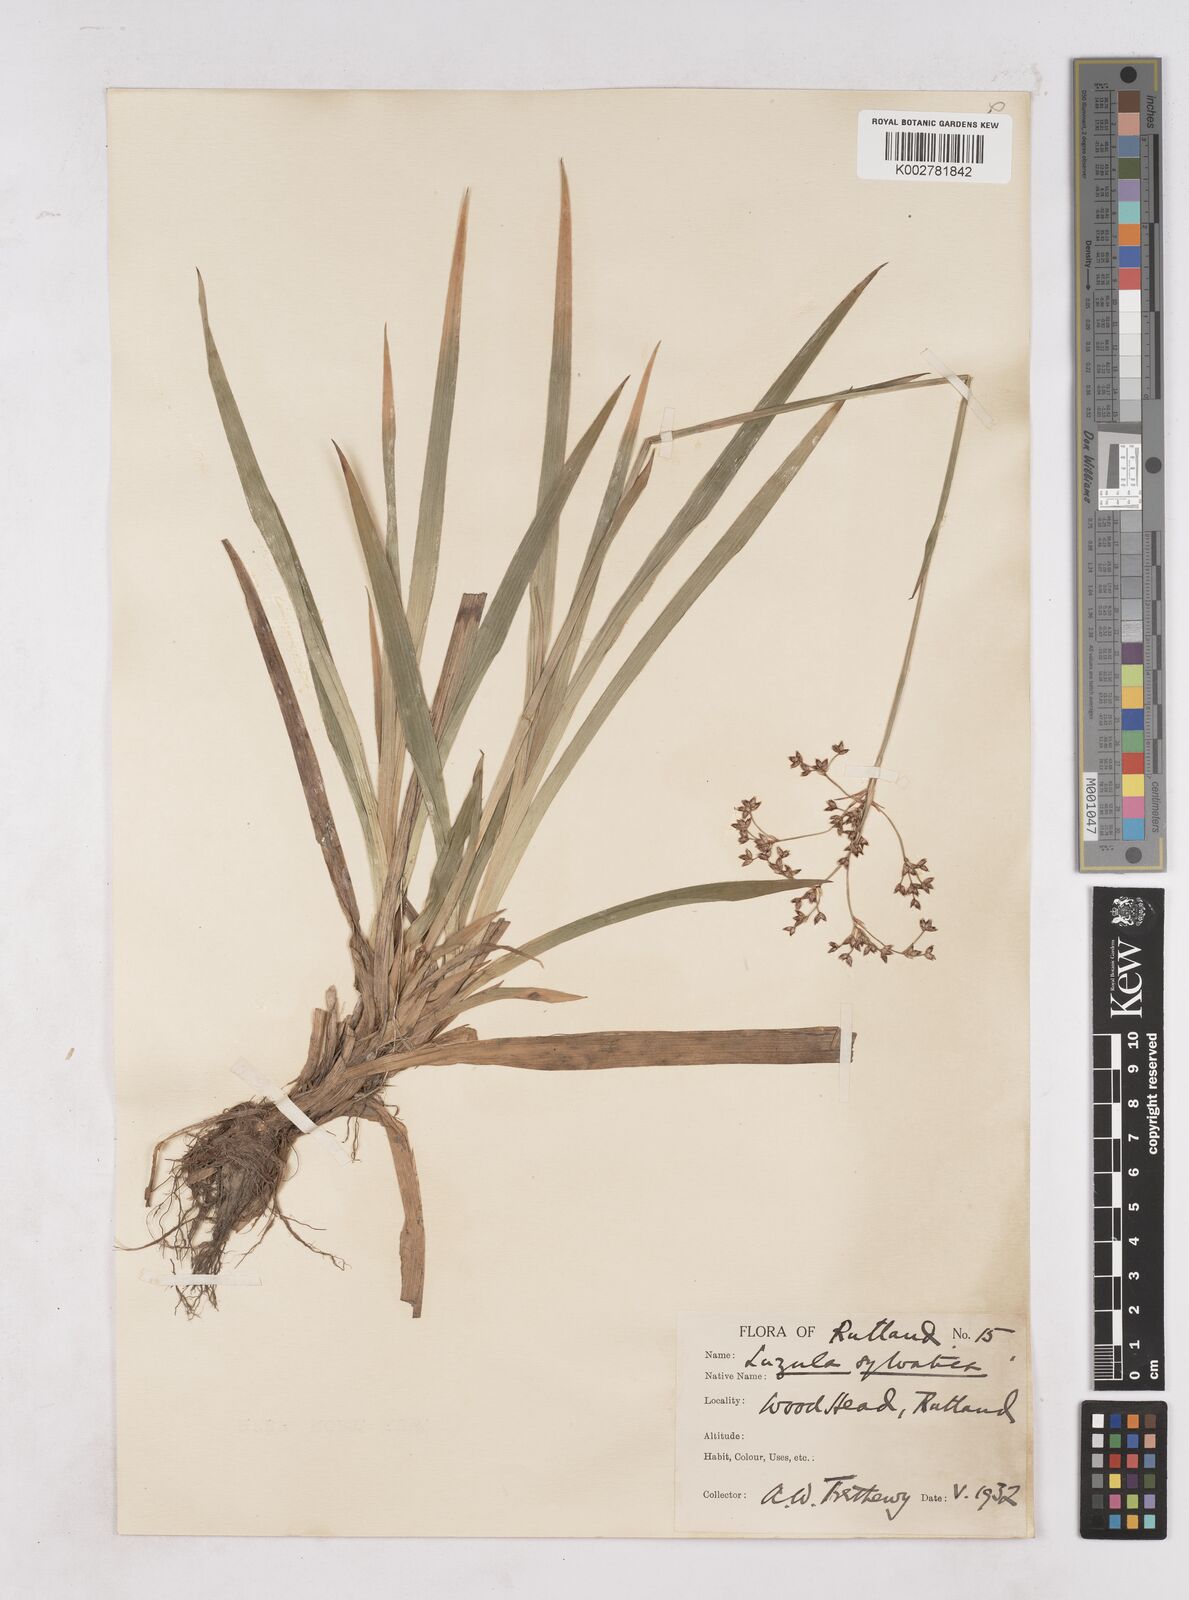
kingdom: Plantae
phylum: Tracheophyta
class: Liliopsida
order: Poales
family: Juncaceae
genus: Luzula
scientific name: Luzula sylvatica
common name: Great wood-rush
